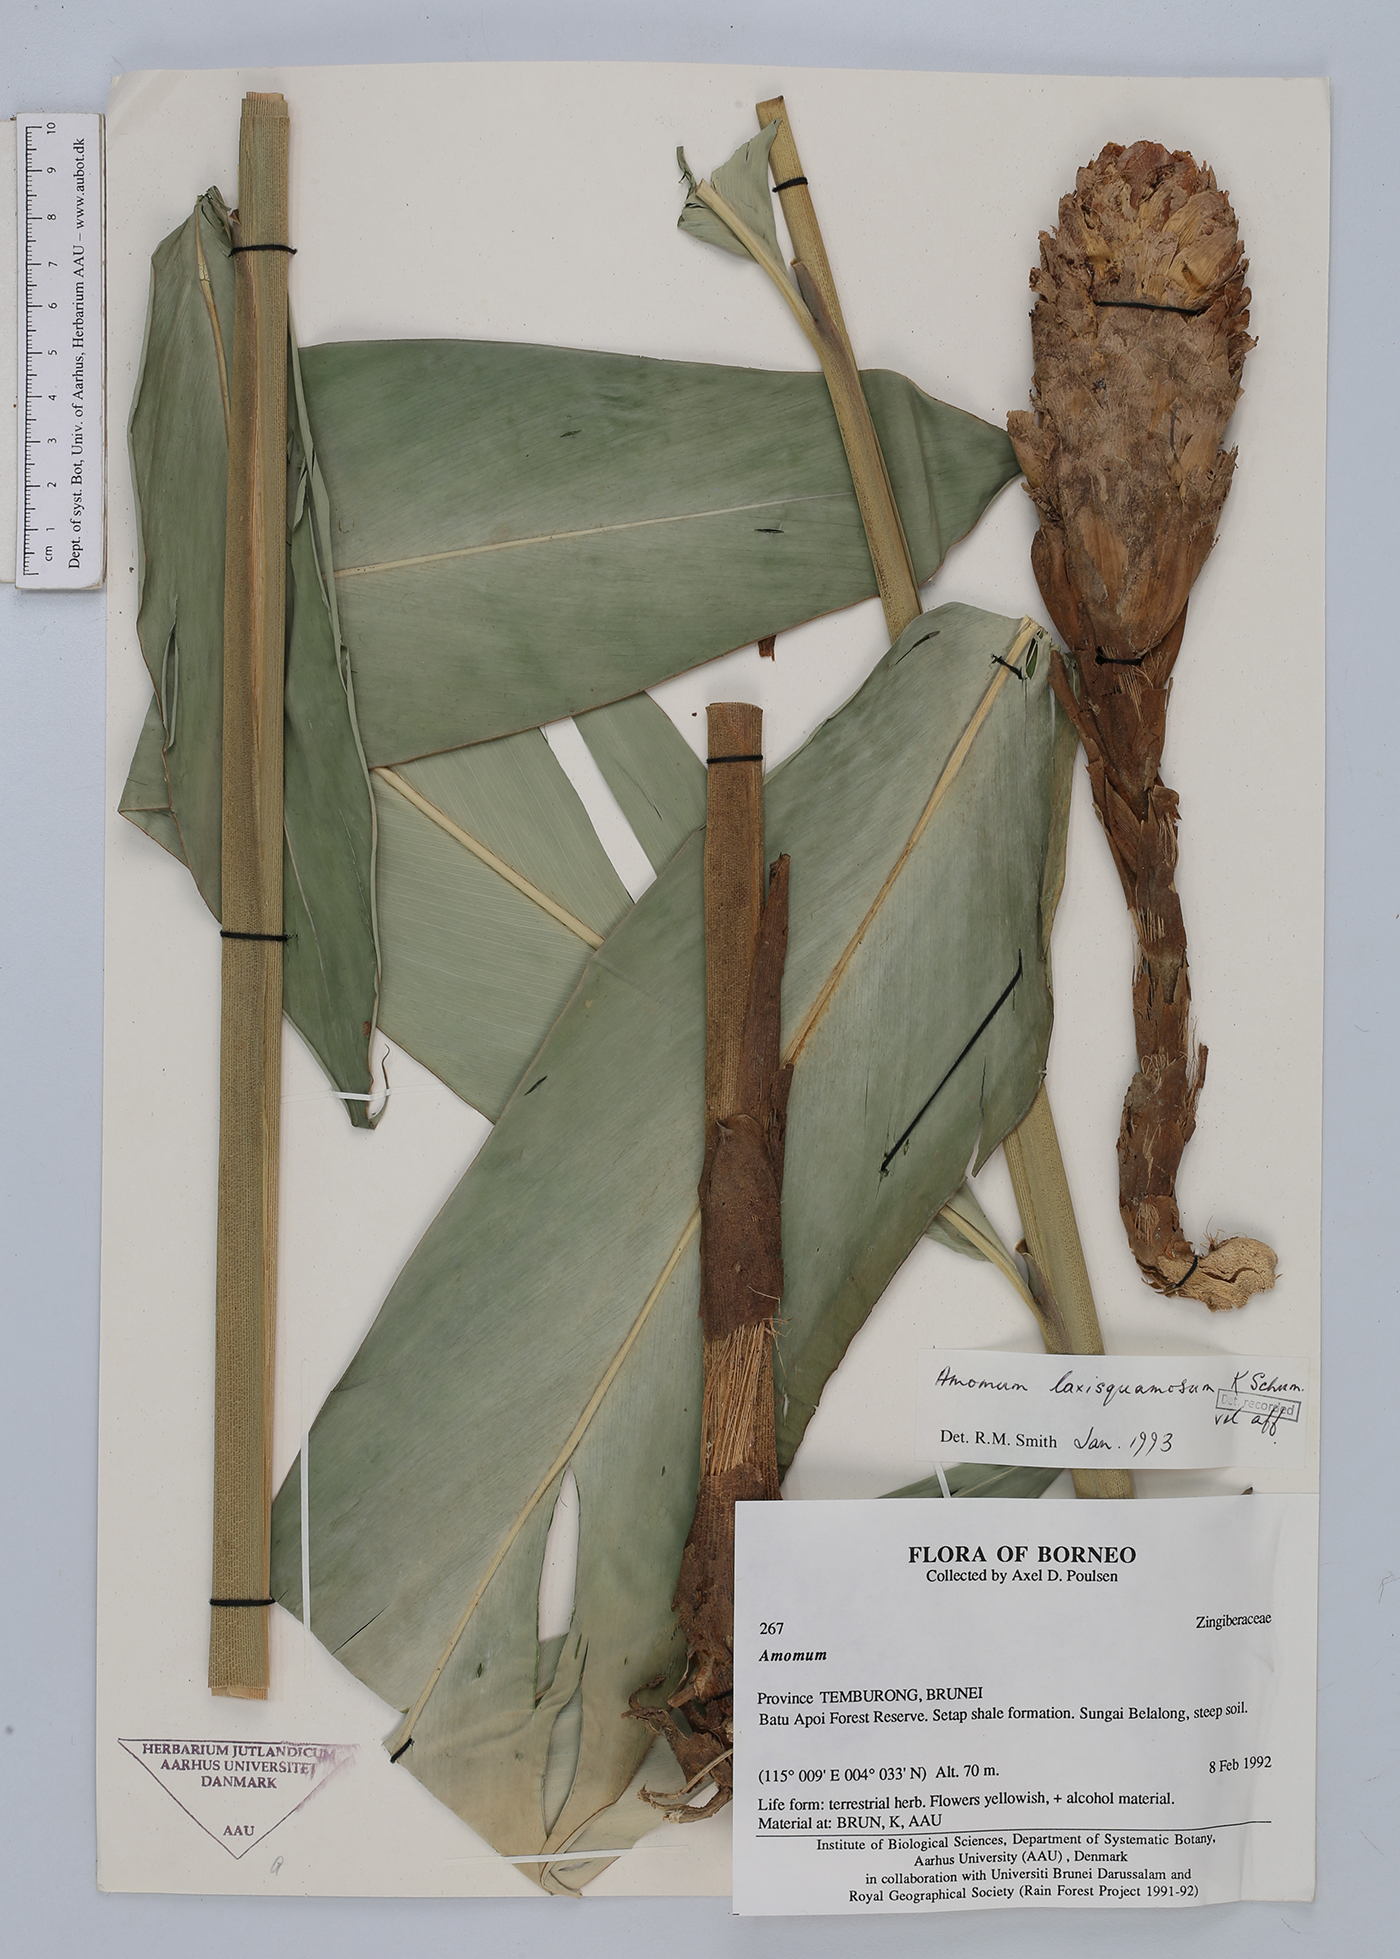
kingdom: Plantae
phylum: Tracheophyta
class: Liliopsida
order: Zingiberales
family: Zingiberaceae
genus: Sundamomum
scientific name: Sundamomum laxesquamosum
